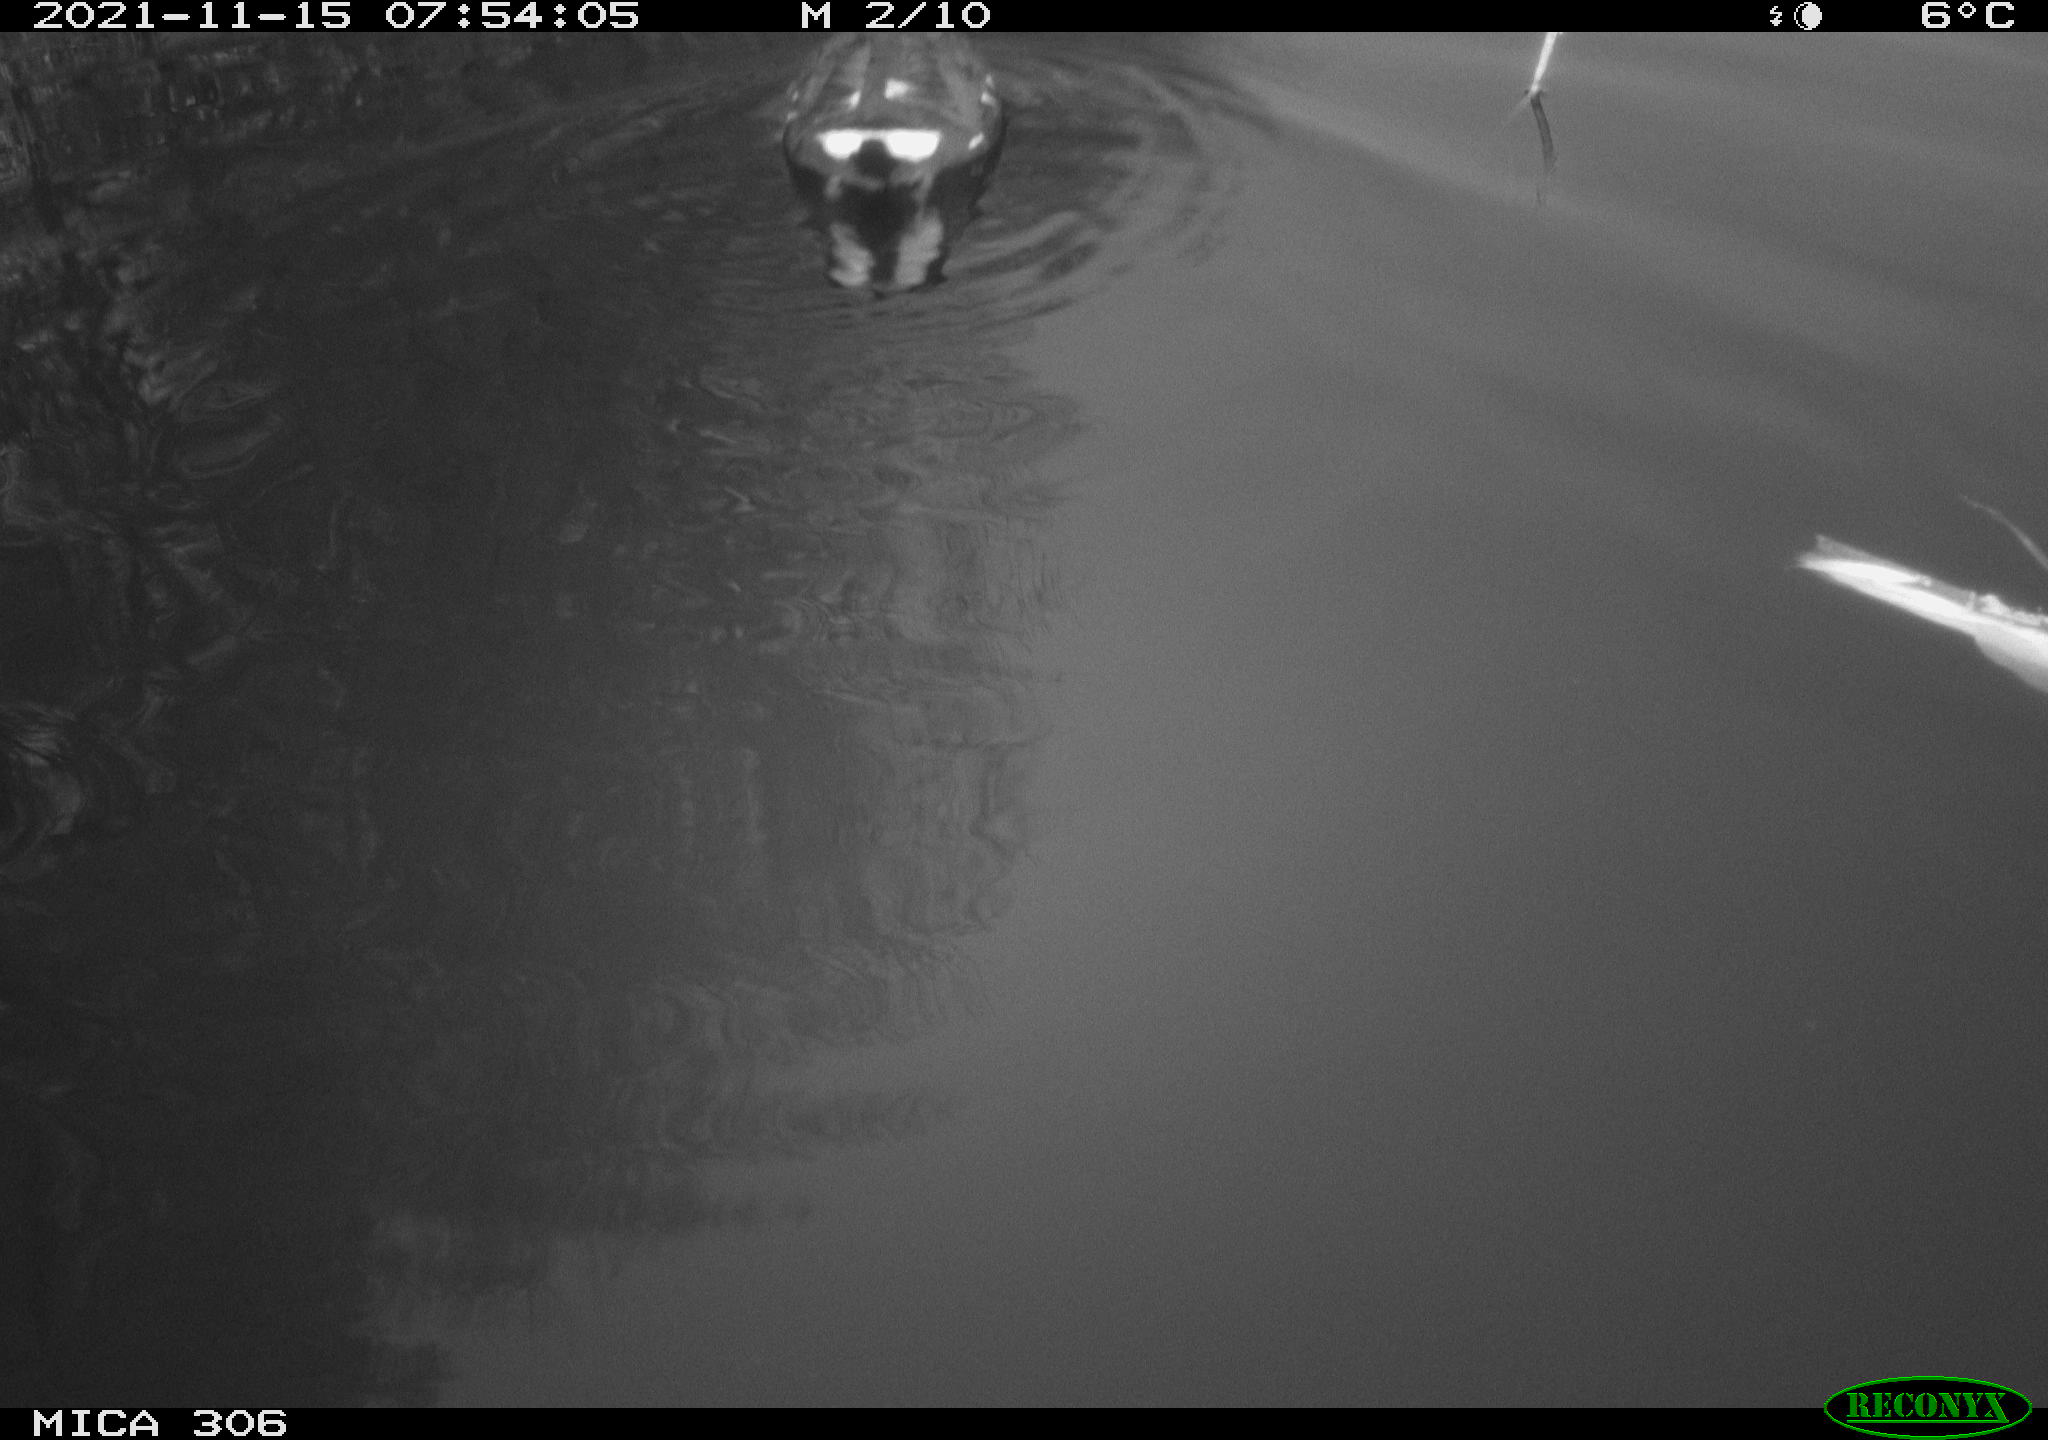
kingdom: Animalia
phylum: Chordata
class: Aves
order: Gruiformes
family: Rallidae
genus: Fulica
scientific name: Fulica atra
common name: Eurasian coot
